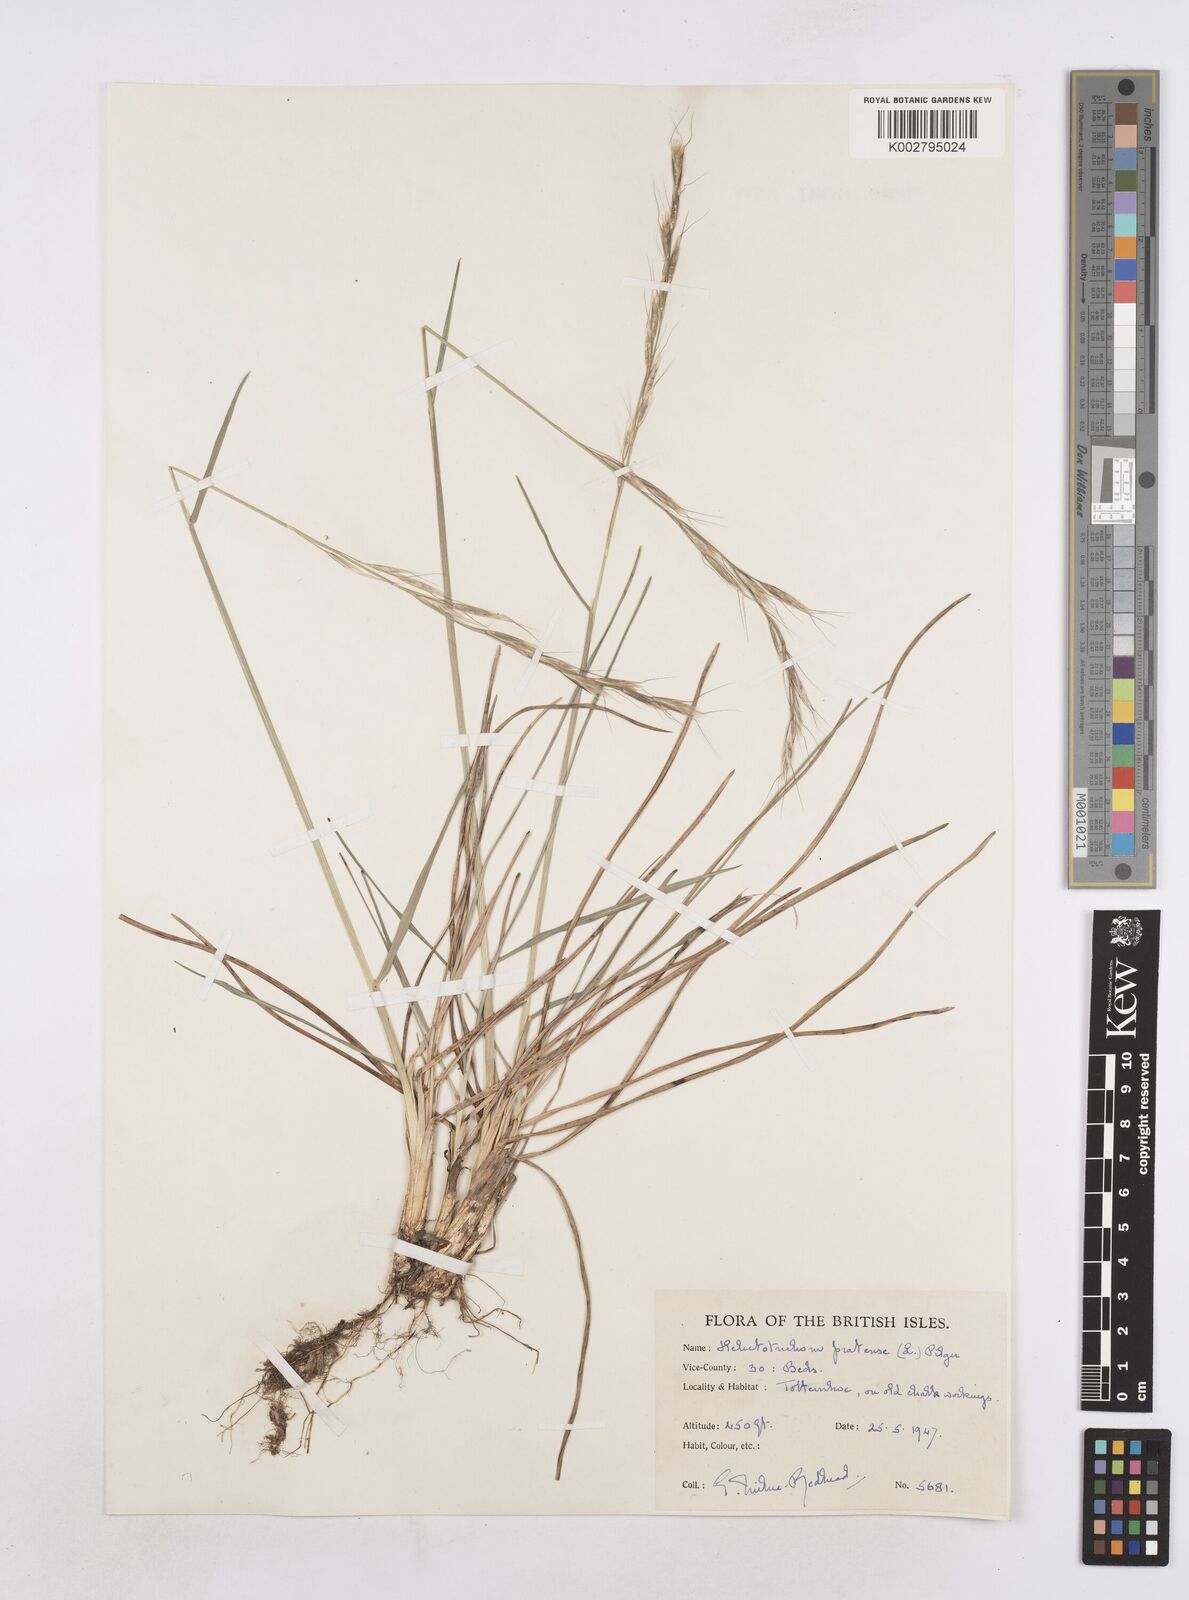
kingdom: Plantae
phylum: Tracheophyta
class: Liliopsida
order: Poales
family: Poaceae
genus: Helictochloa
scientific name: Helictochloa pratensis
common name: Meadow oat grass
